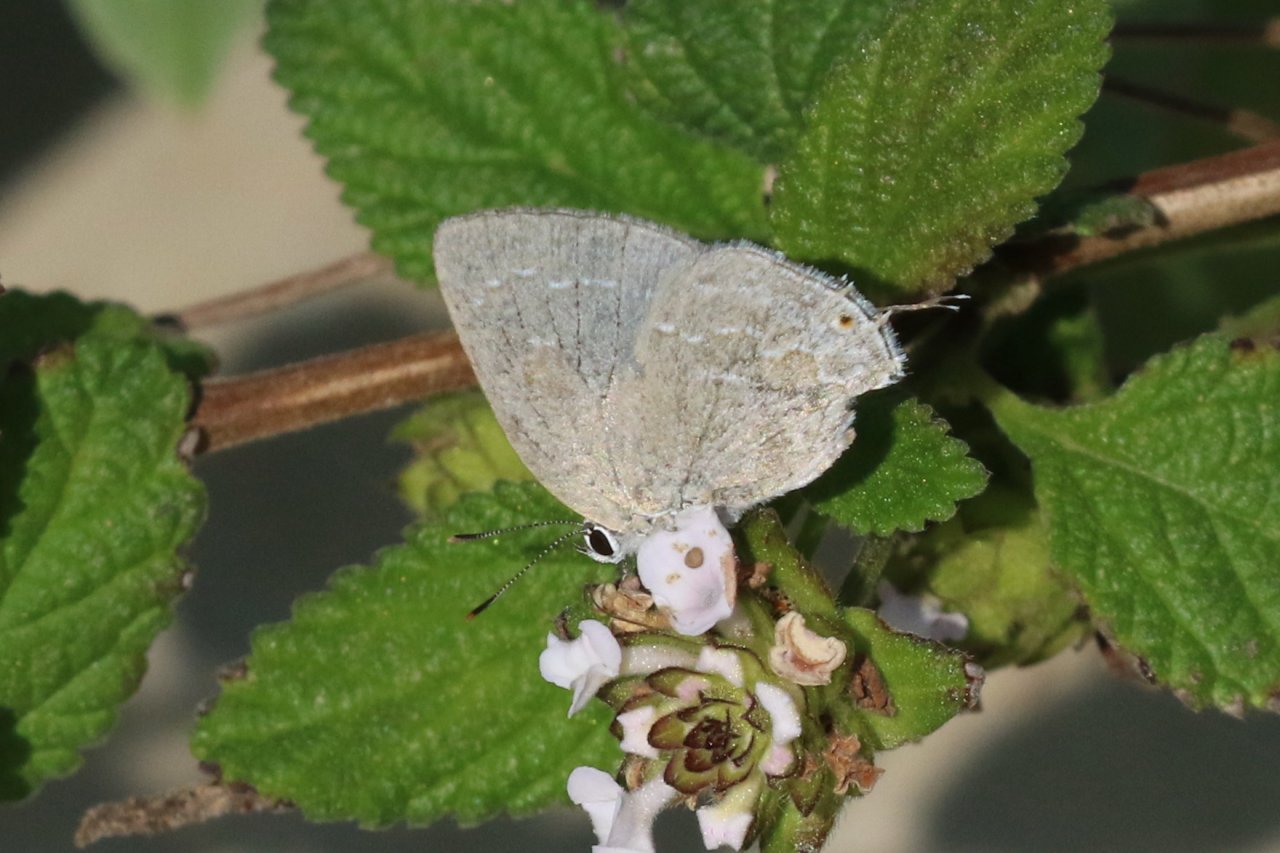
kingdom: Animalia
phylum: Arthropoda
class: Insecta
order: Lepidoptera
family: Lycaenidae
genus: Strephonota
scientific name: Strephonota tephraeus
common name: Pearly-Gray Hairstreak
